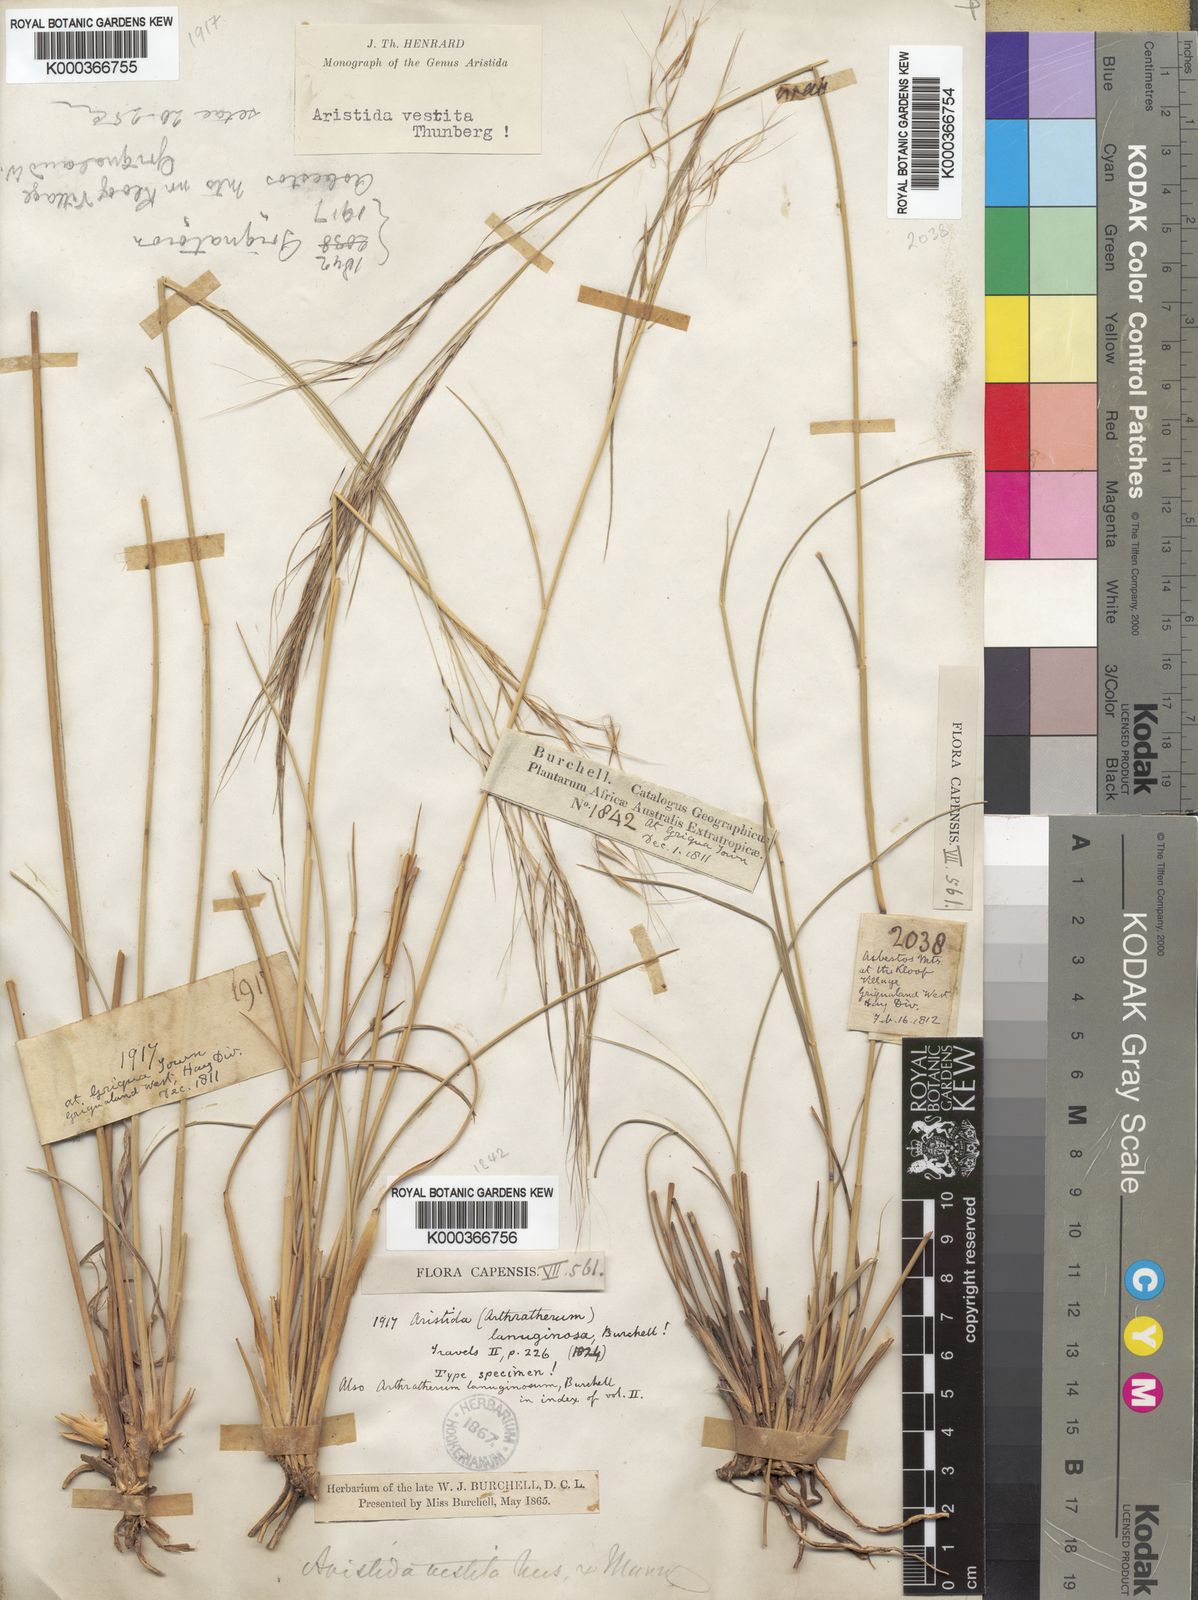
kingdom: Plantae
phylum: Tracheophyta
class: Liliopsida
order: Poales
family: Poaceae
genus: Aristida
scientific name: Aristida vestita
